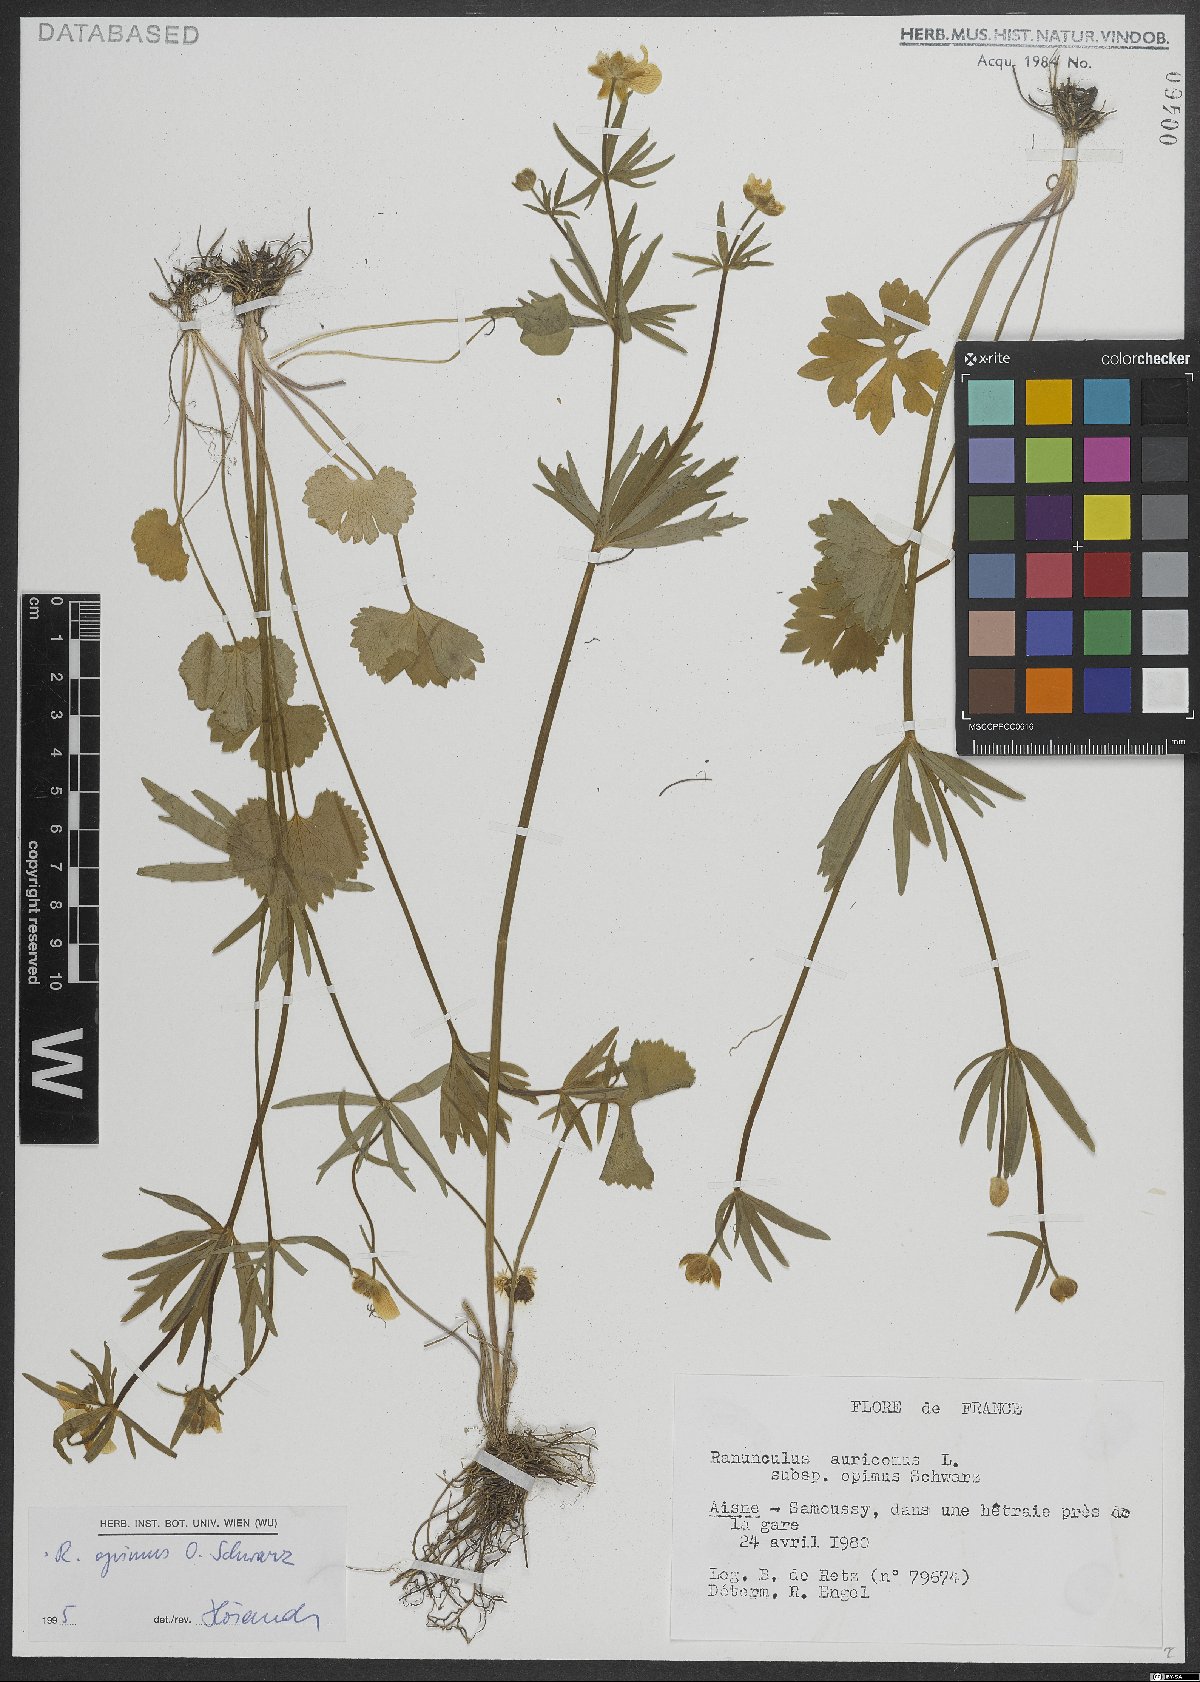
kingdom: Plantae
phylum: Tracheophyta
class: Magnoliopsida
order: Ranunculales
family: Ranunculaceae
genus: Ranunculus
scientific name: Ranunculus opimus
